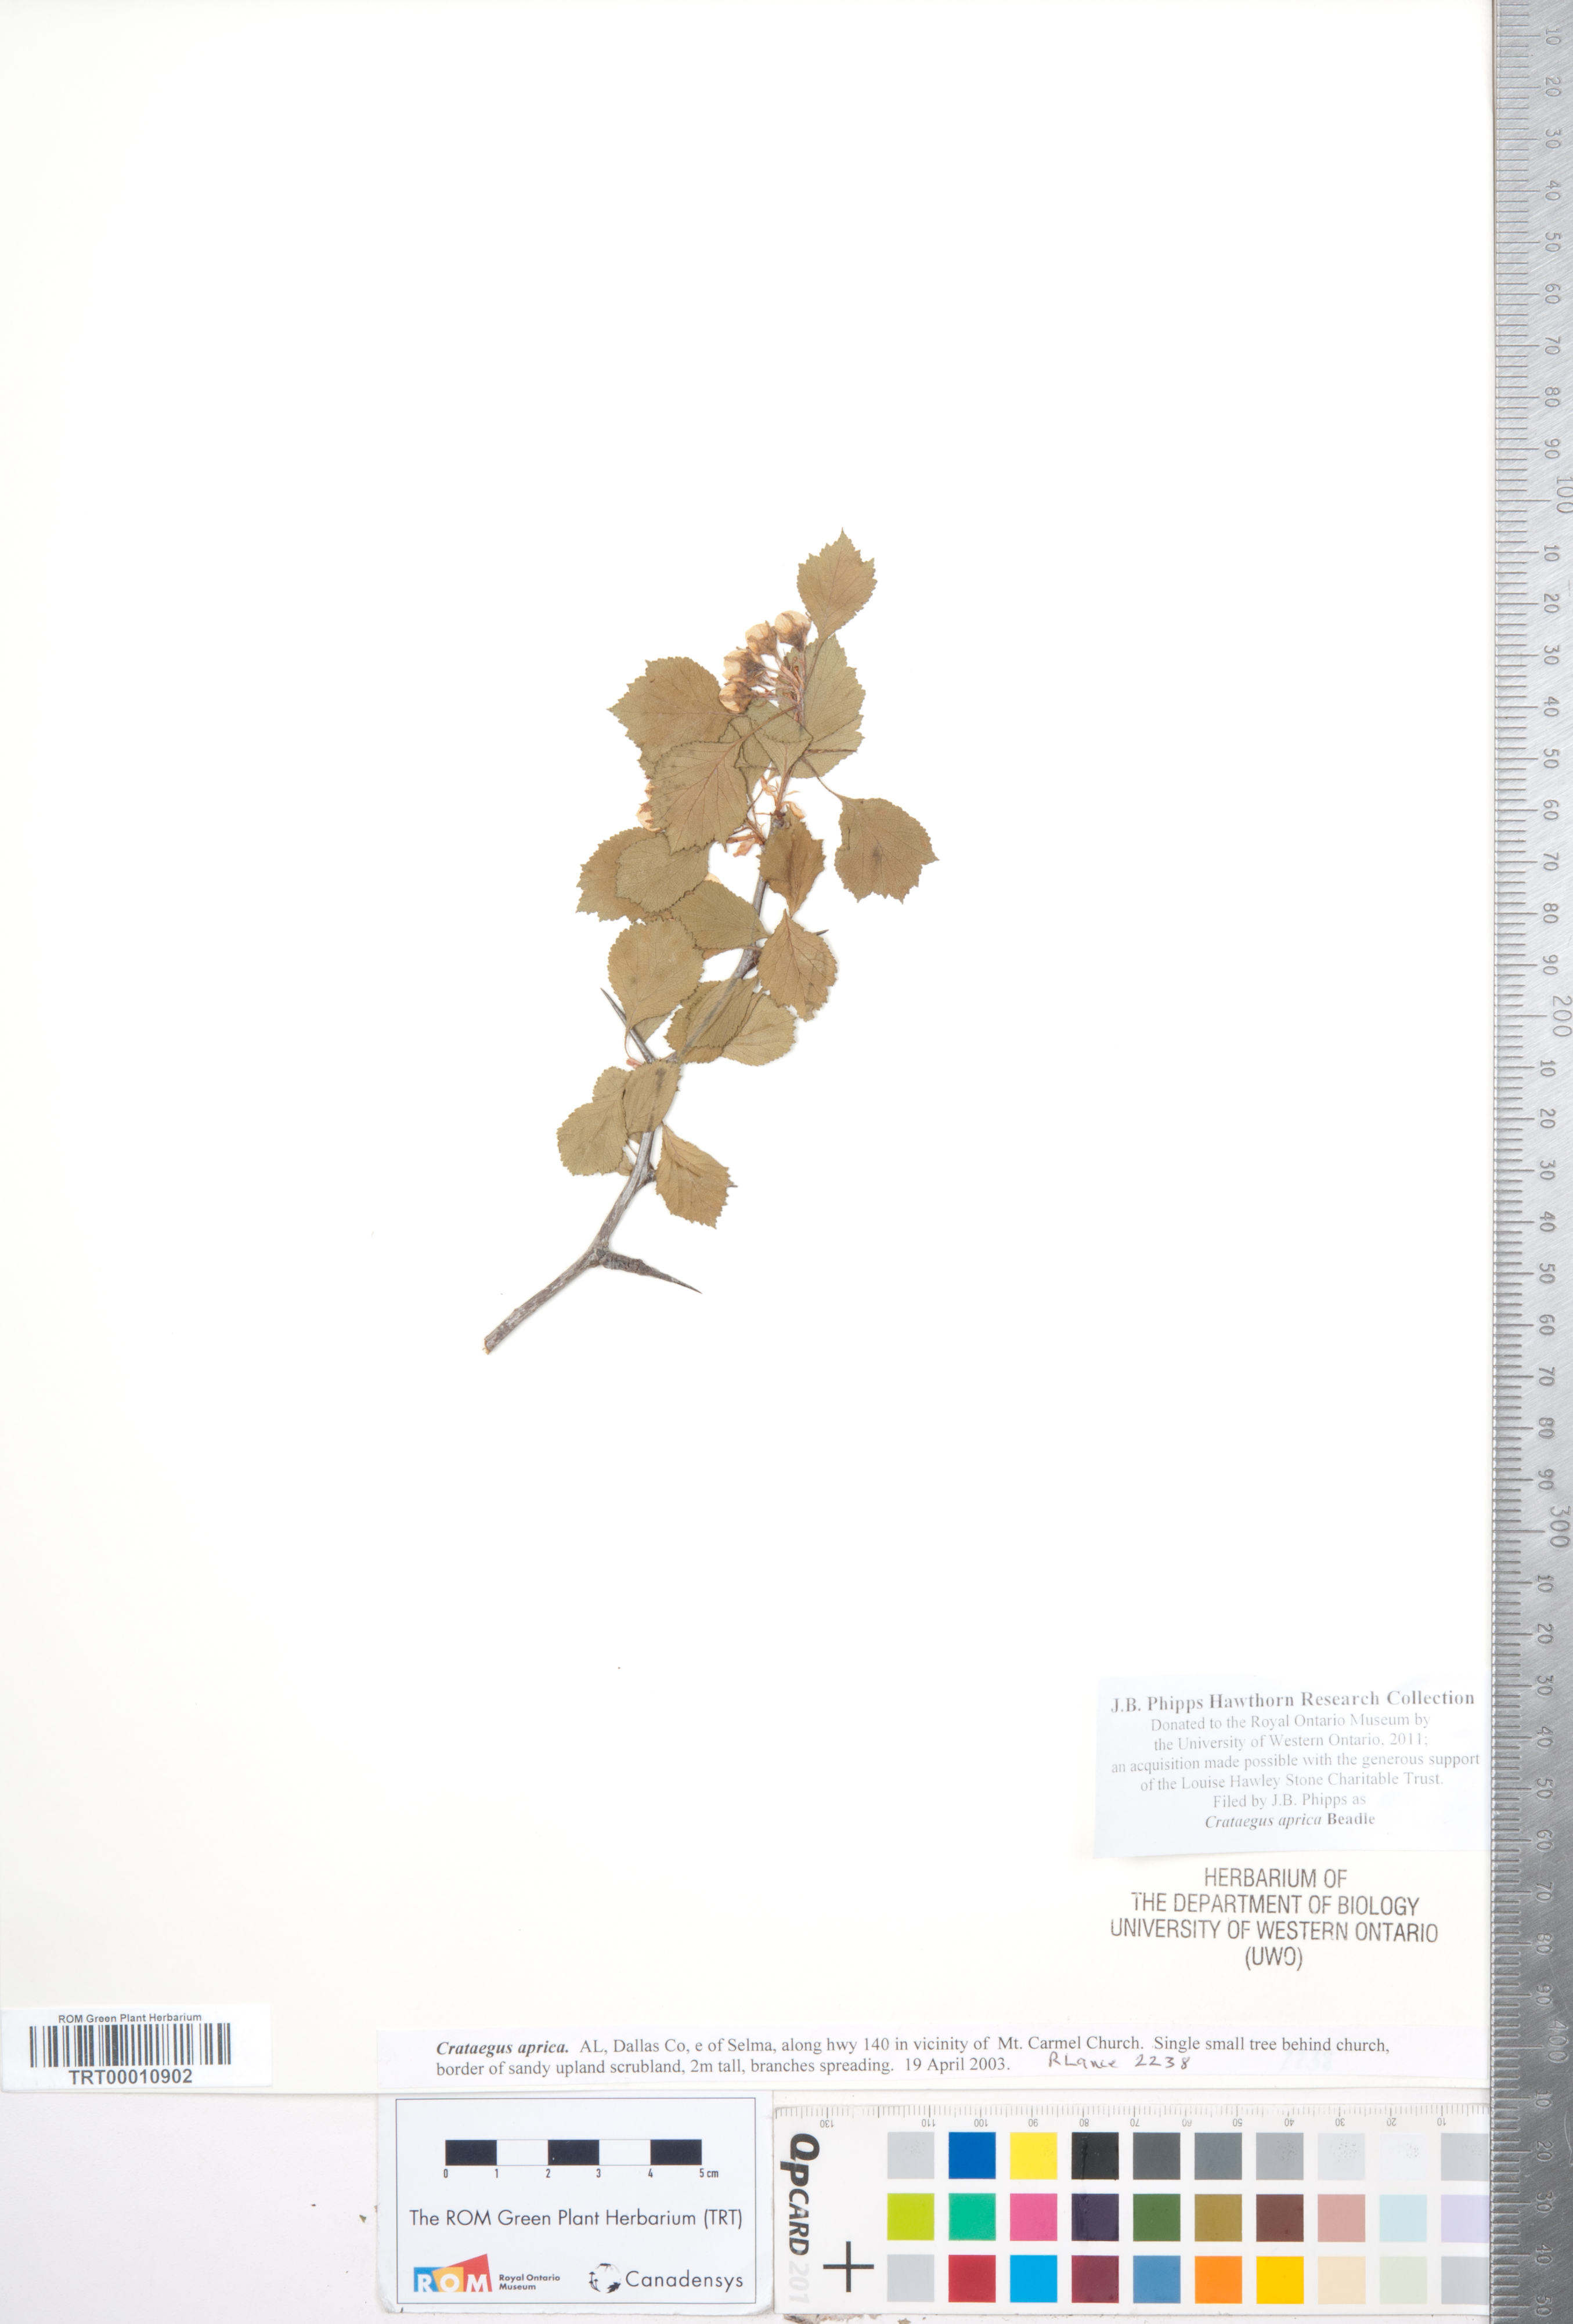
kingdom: Plantae
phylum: Tracheophyta
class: Magnoliopsida
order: Rosales
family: Rosaceae
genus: Crataegus
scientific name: Crataegus aprica
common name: Sunny hawthorn
